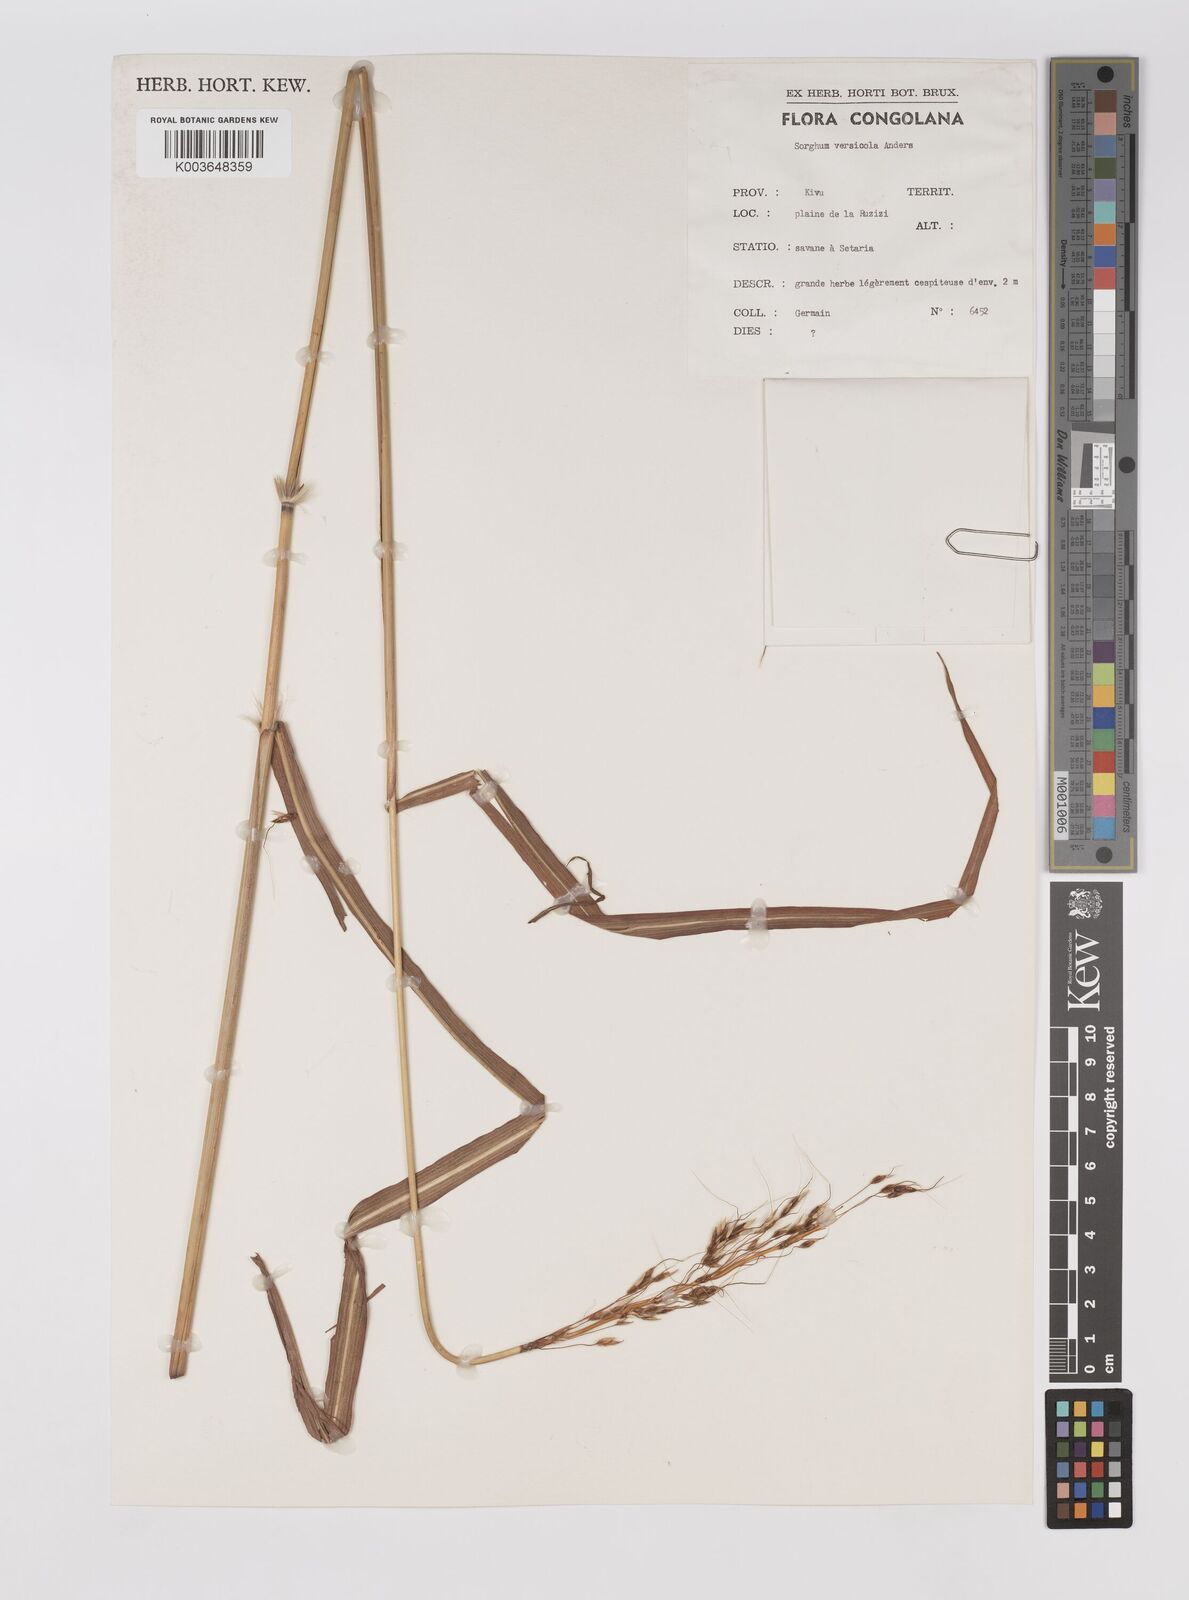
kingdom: Plantae
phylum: Tracheophyta
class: Liliopsida
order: Poales
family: Poaceae
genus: Sarga
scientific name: Sarga versicolor
